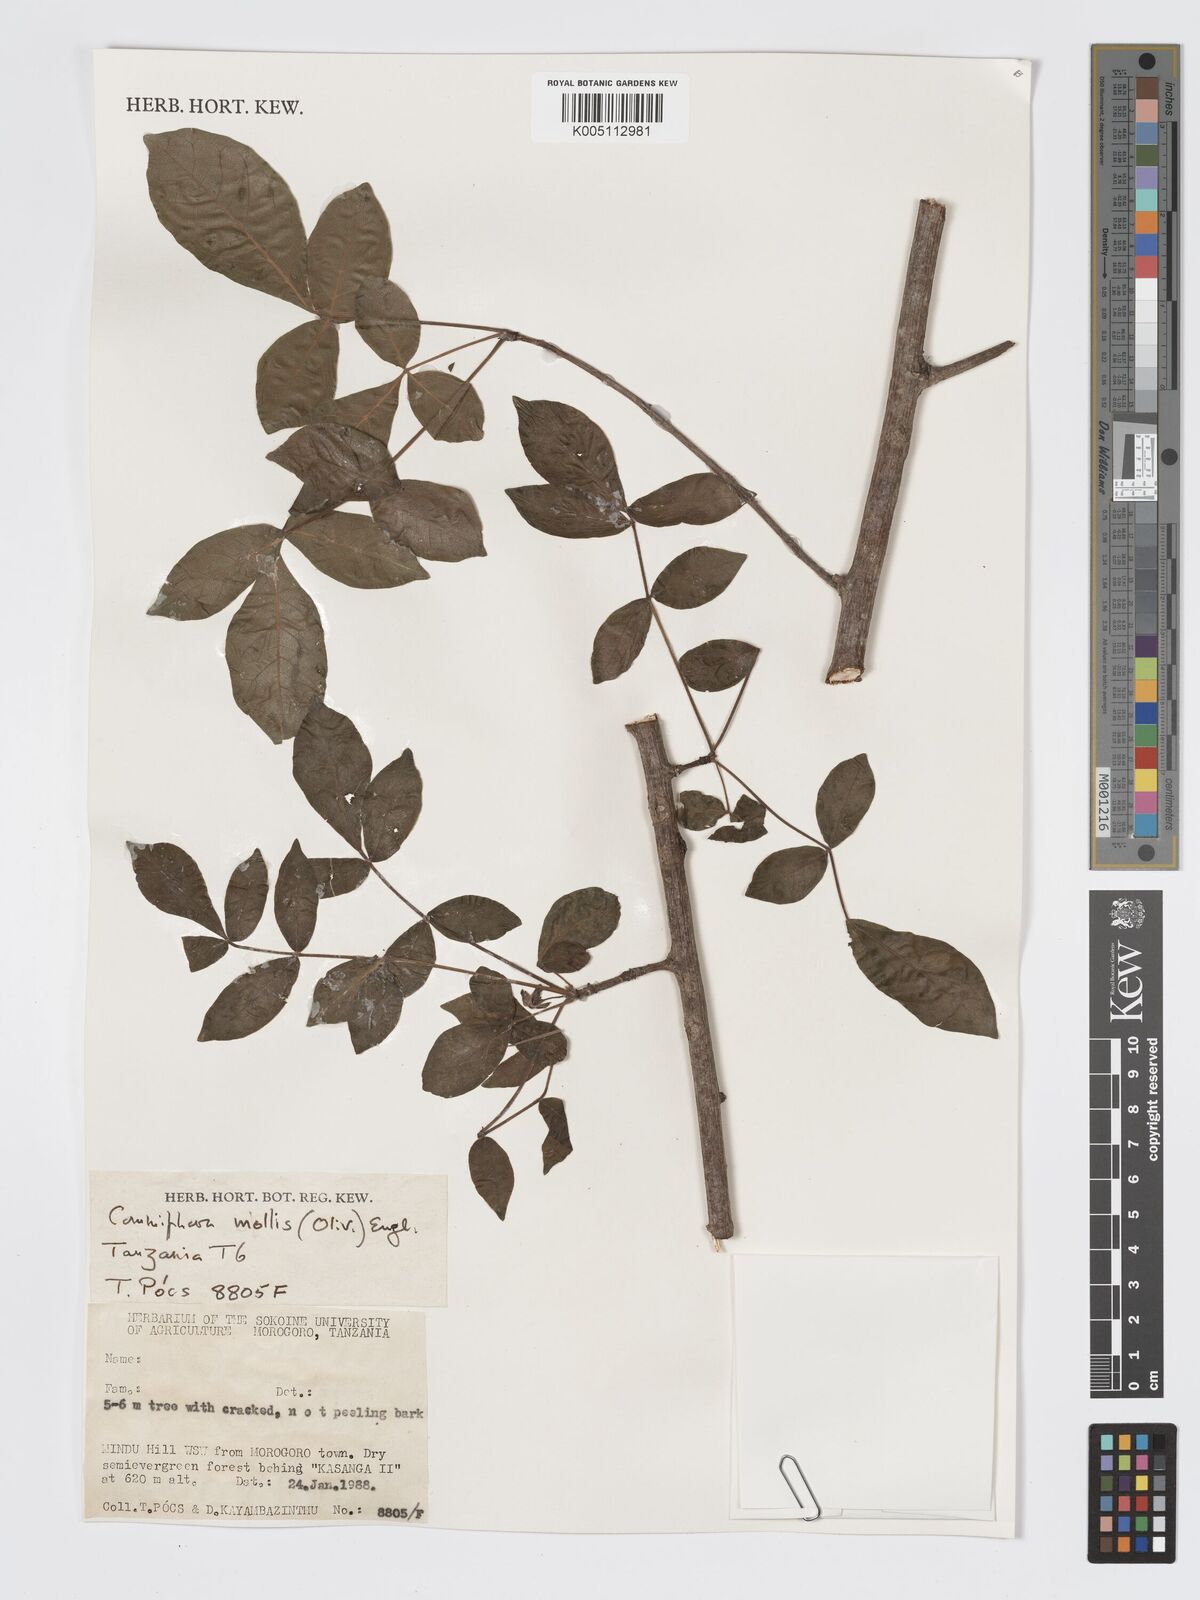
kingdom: Plantae
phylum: Tracheophyta
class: Magnoliopsida
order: Sapindales
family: Burseraceae
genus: Commiphora
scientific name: Commiphora
